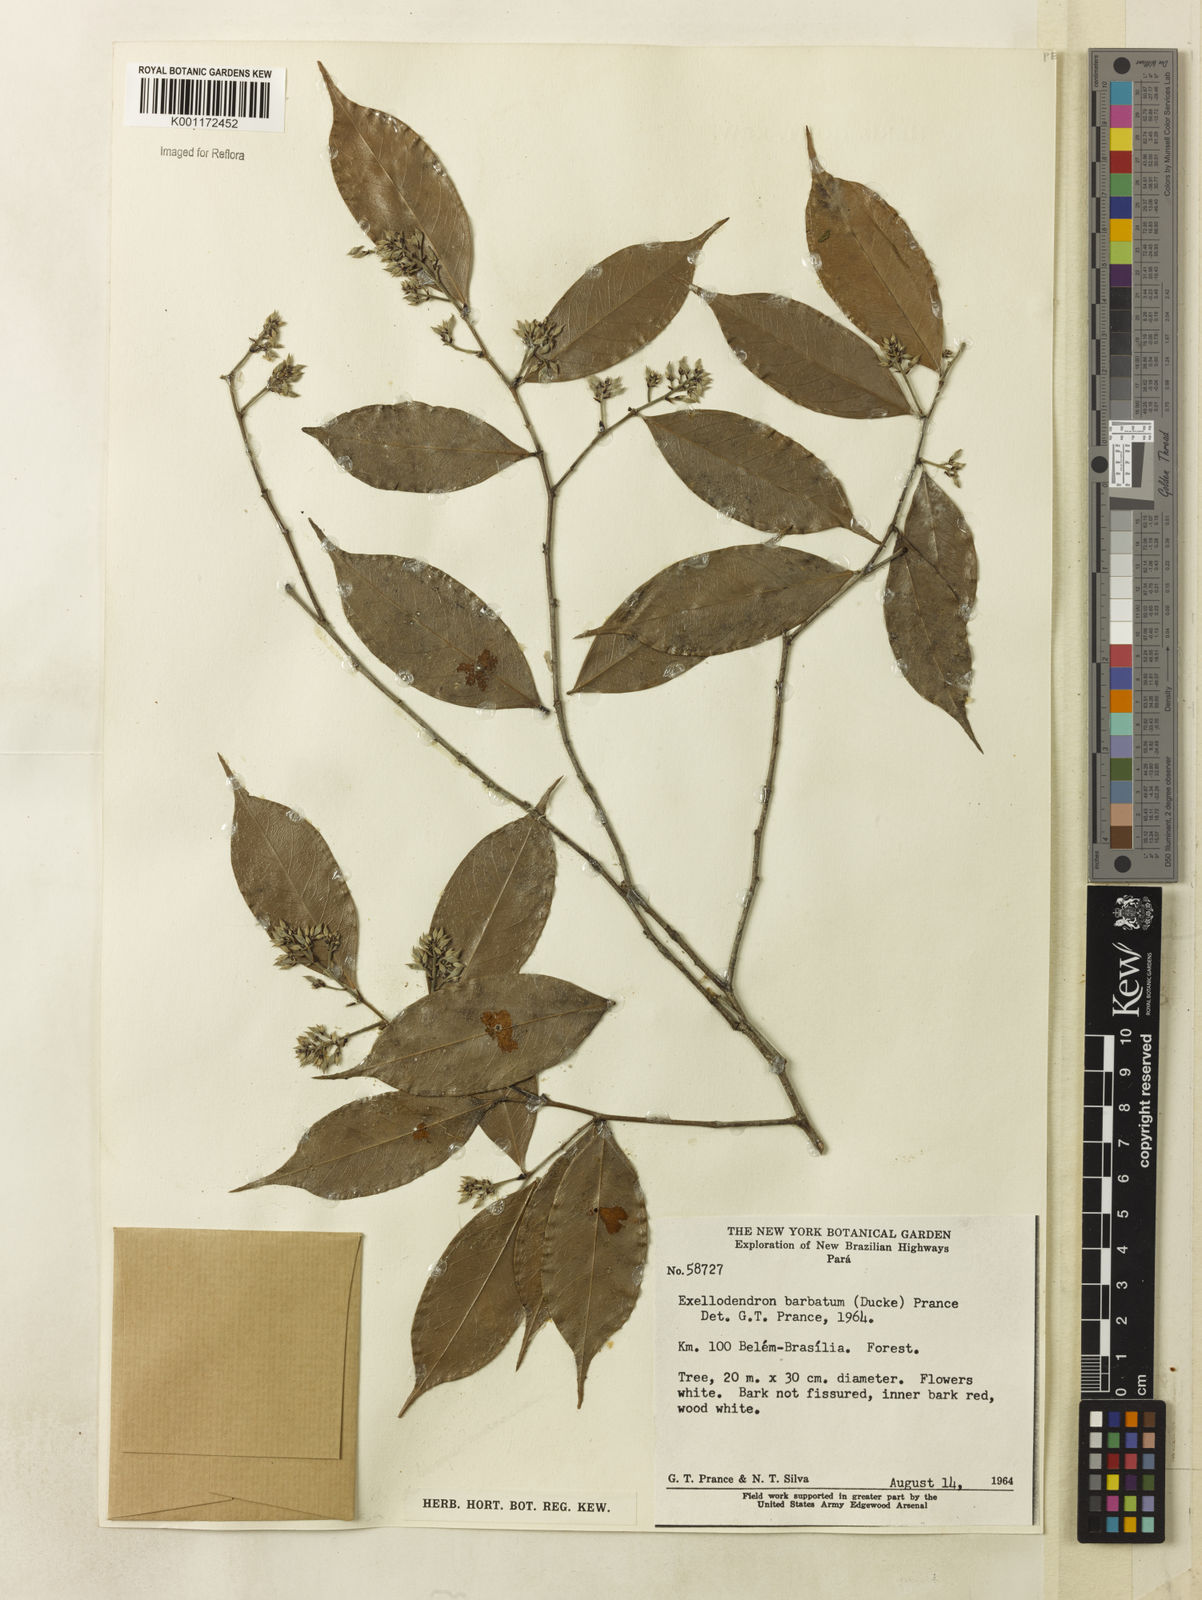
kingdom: Plantae
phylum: Tracheophyta
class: Magnoliopsida
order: Malpighiales
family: Chrysobalanaceae
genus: Atuna
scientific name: Atuna
